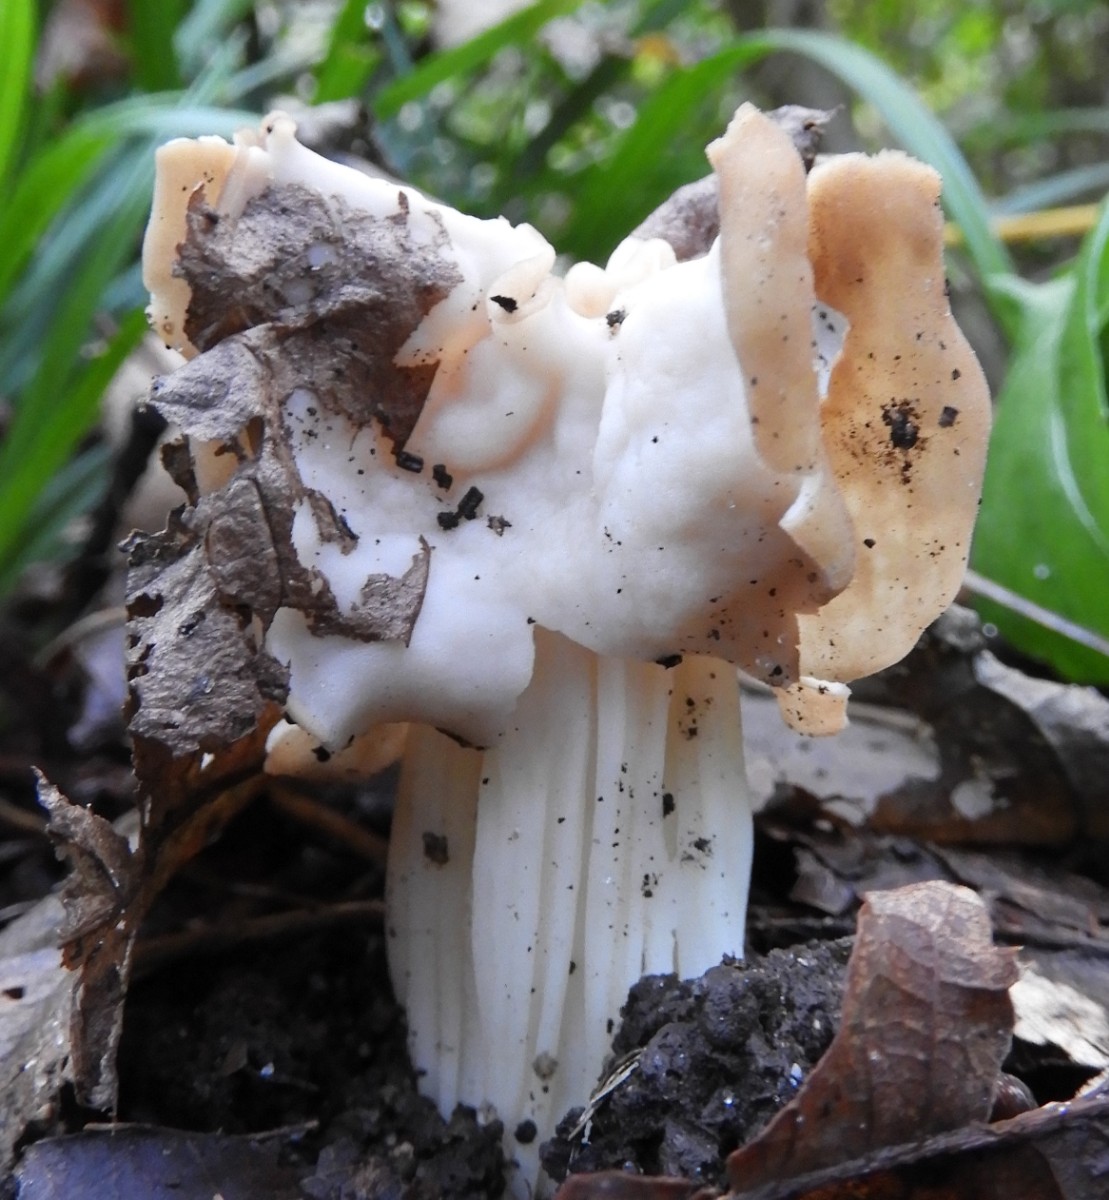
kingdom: Fungi
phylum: Ascomycota
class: Pezizomycetes
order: Pezizales
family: Helvellaceae
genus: Helvella
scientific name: Helvella crispa
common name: kruset foldhat
